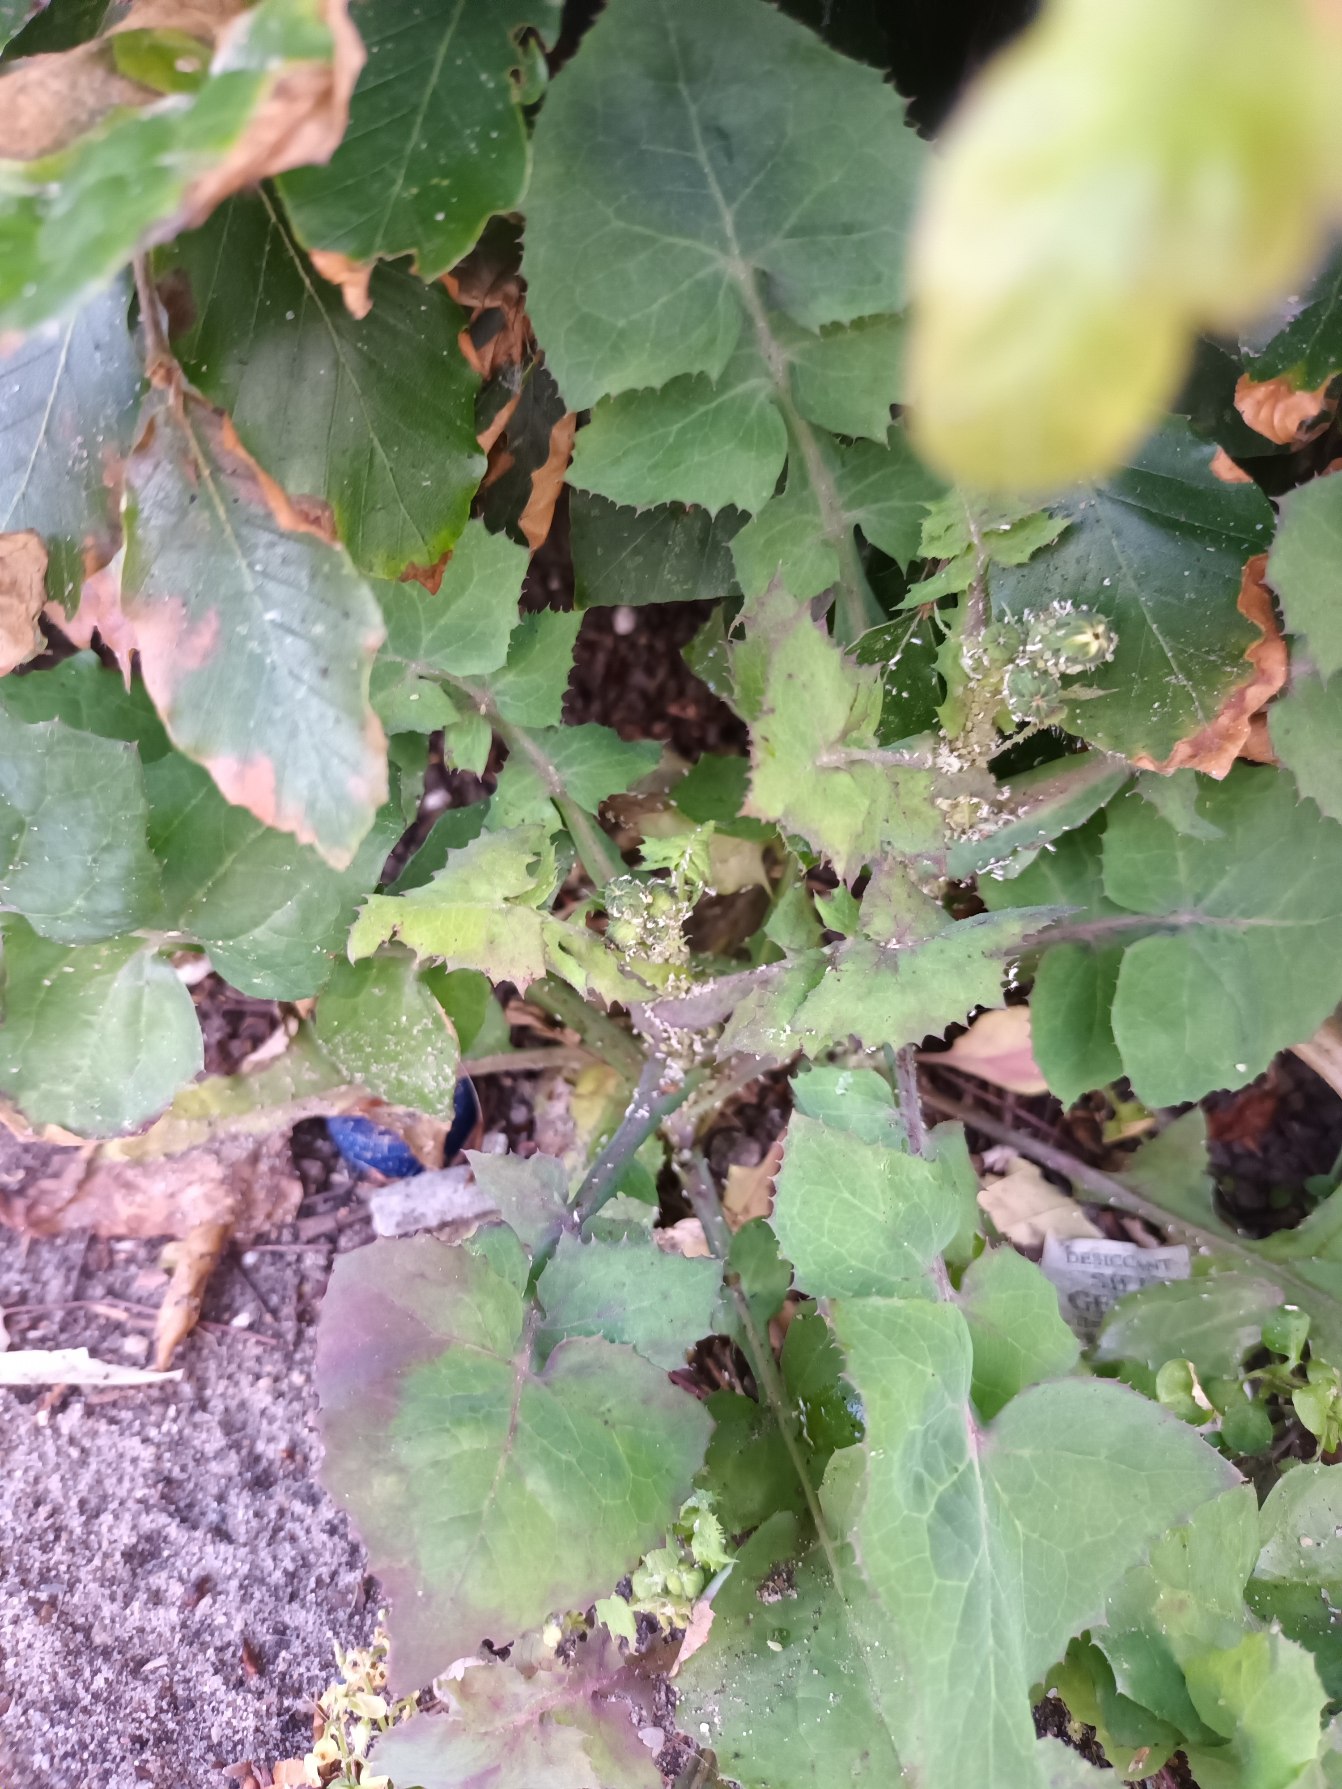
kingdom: Plantae
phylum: Tracheophyta
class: Magnoliopsida
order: Asterales
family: Asteraceae
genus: Sonchus
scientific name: Sonchus oleraceus
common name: Almindelig svinemælk
